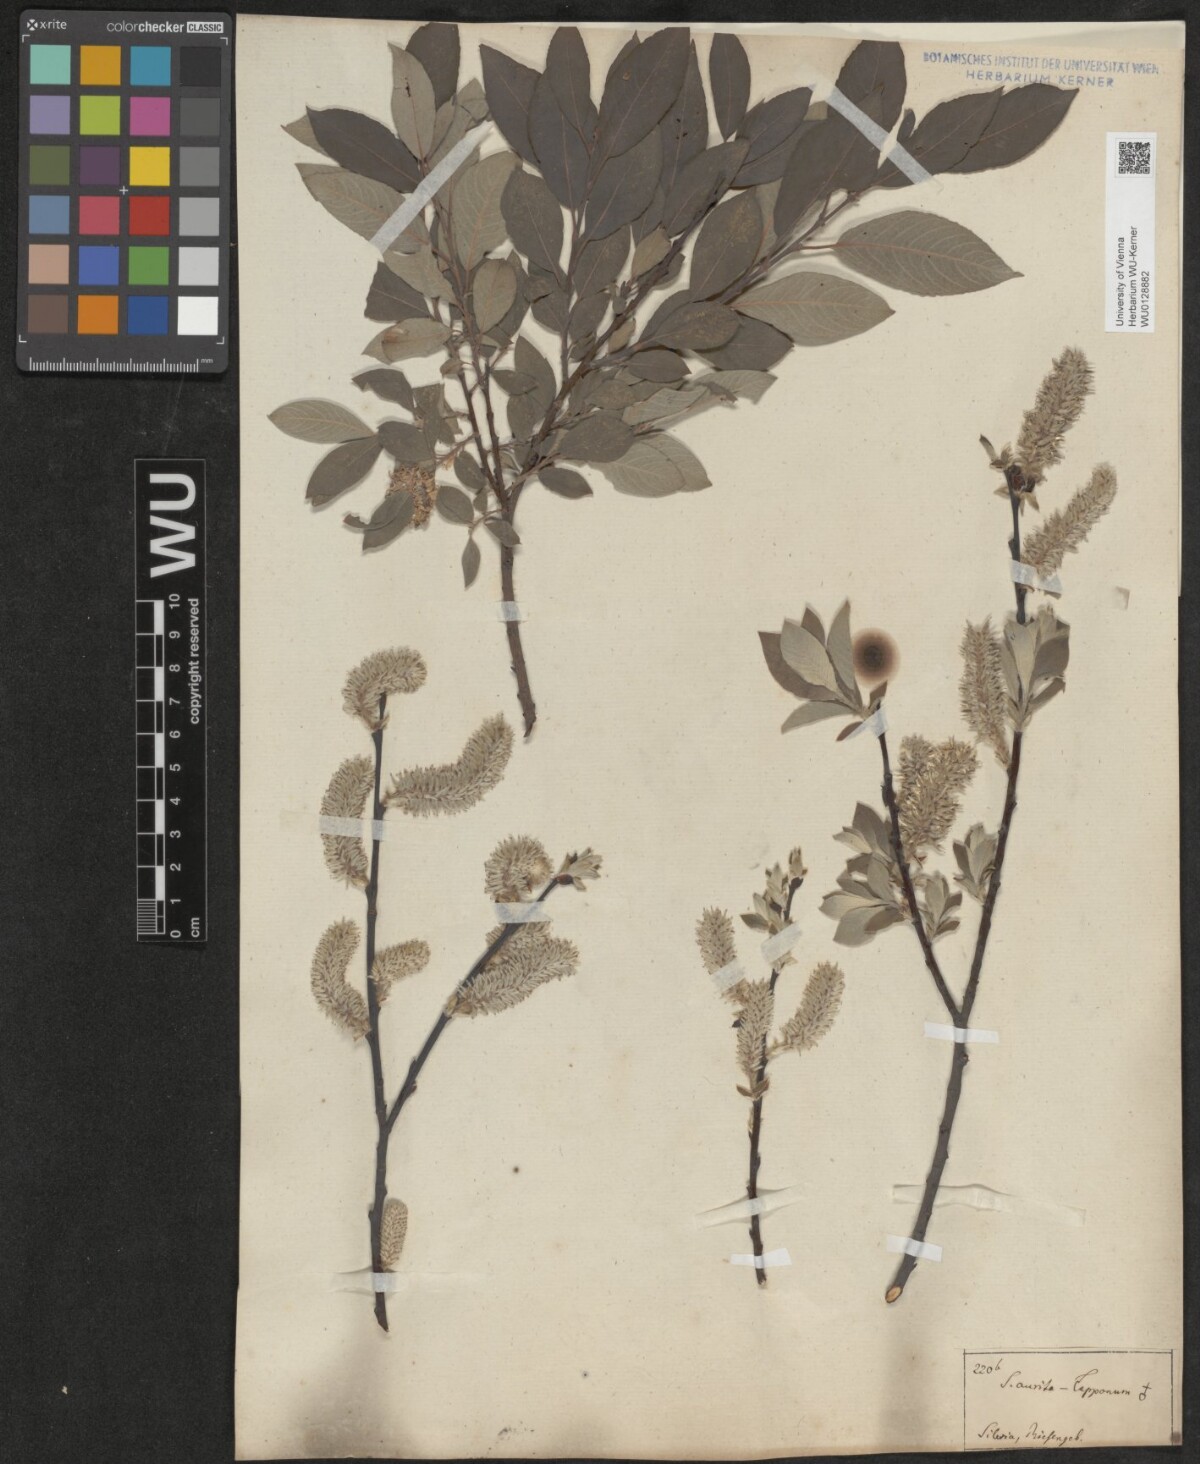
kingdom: Plantae
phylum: Tracheophyta
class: Magnoliopsida
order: Malpighiales
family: Salicaceae
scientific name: Salicaceae
